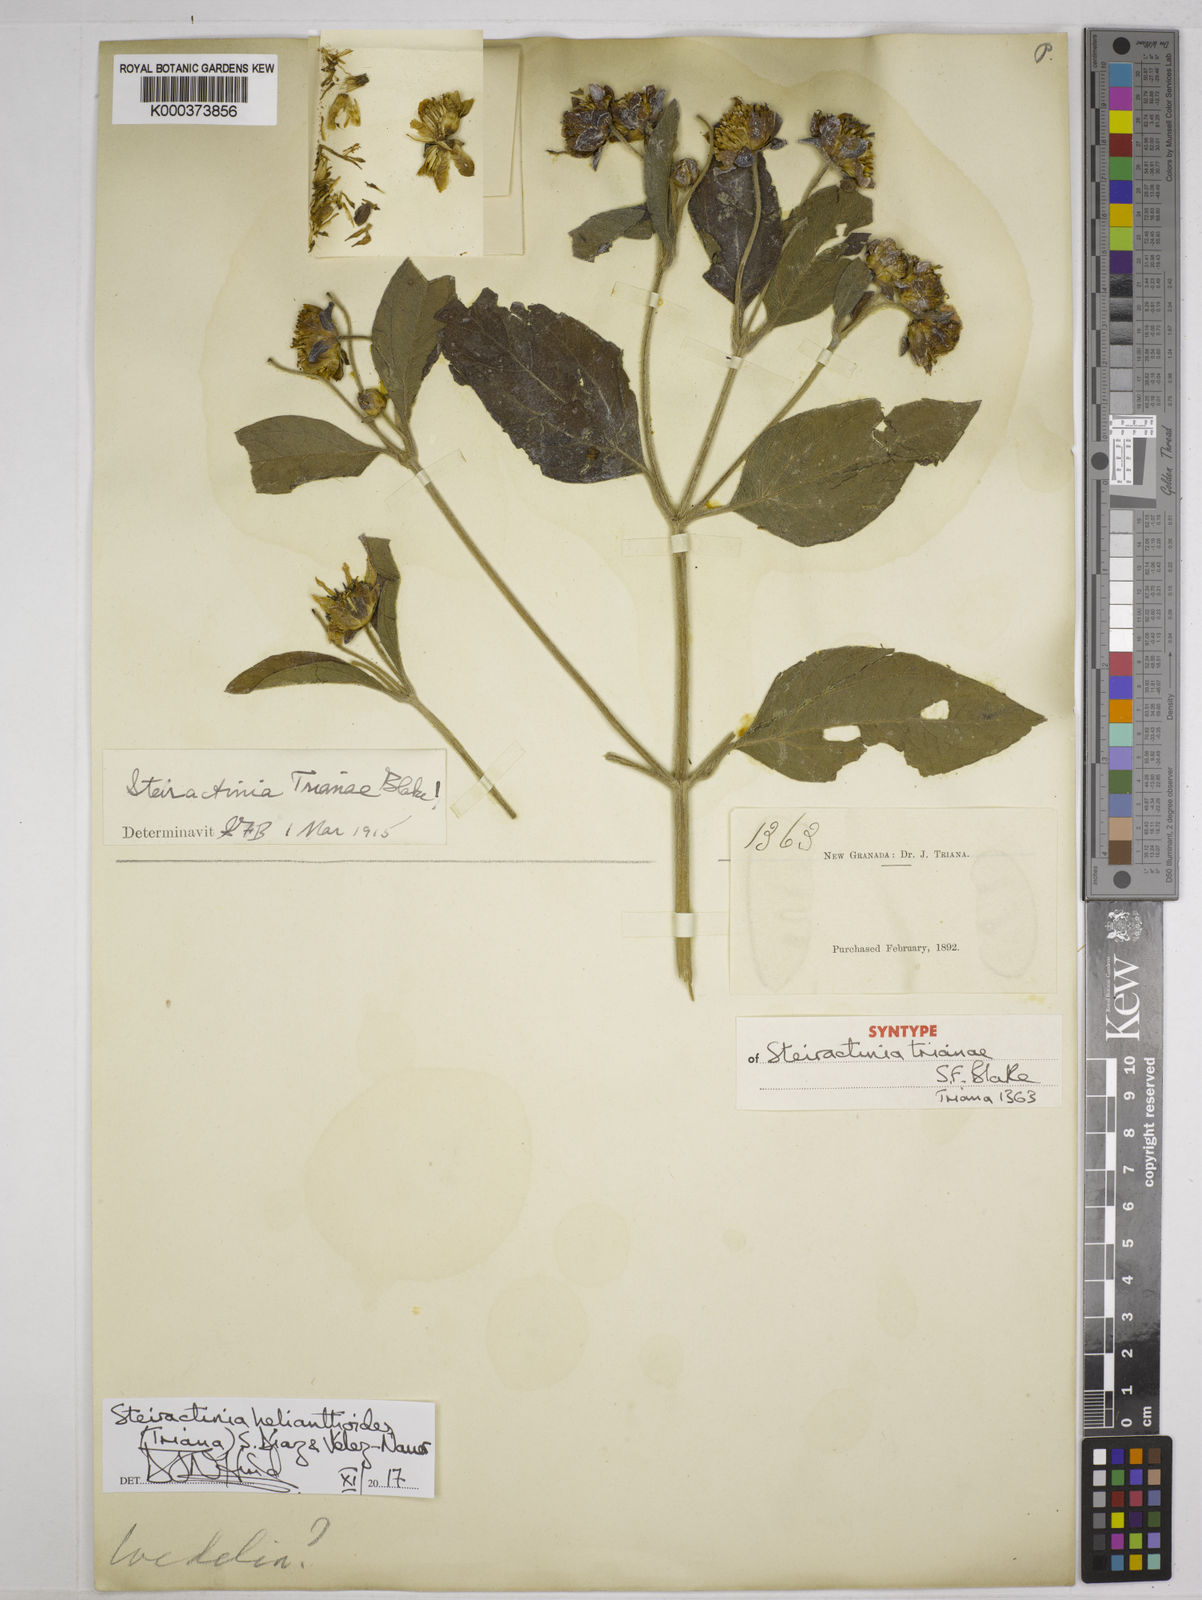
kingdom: Plantae
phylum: Tracheophyta
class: Magnoliopsida
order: Asterales
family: Asteraceae
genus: Steiractinia
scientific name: Steiractinia helianthoides
